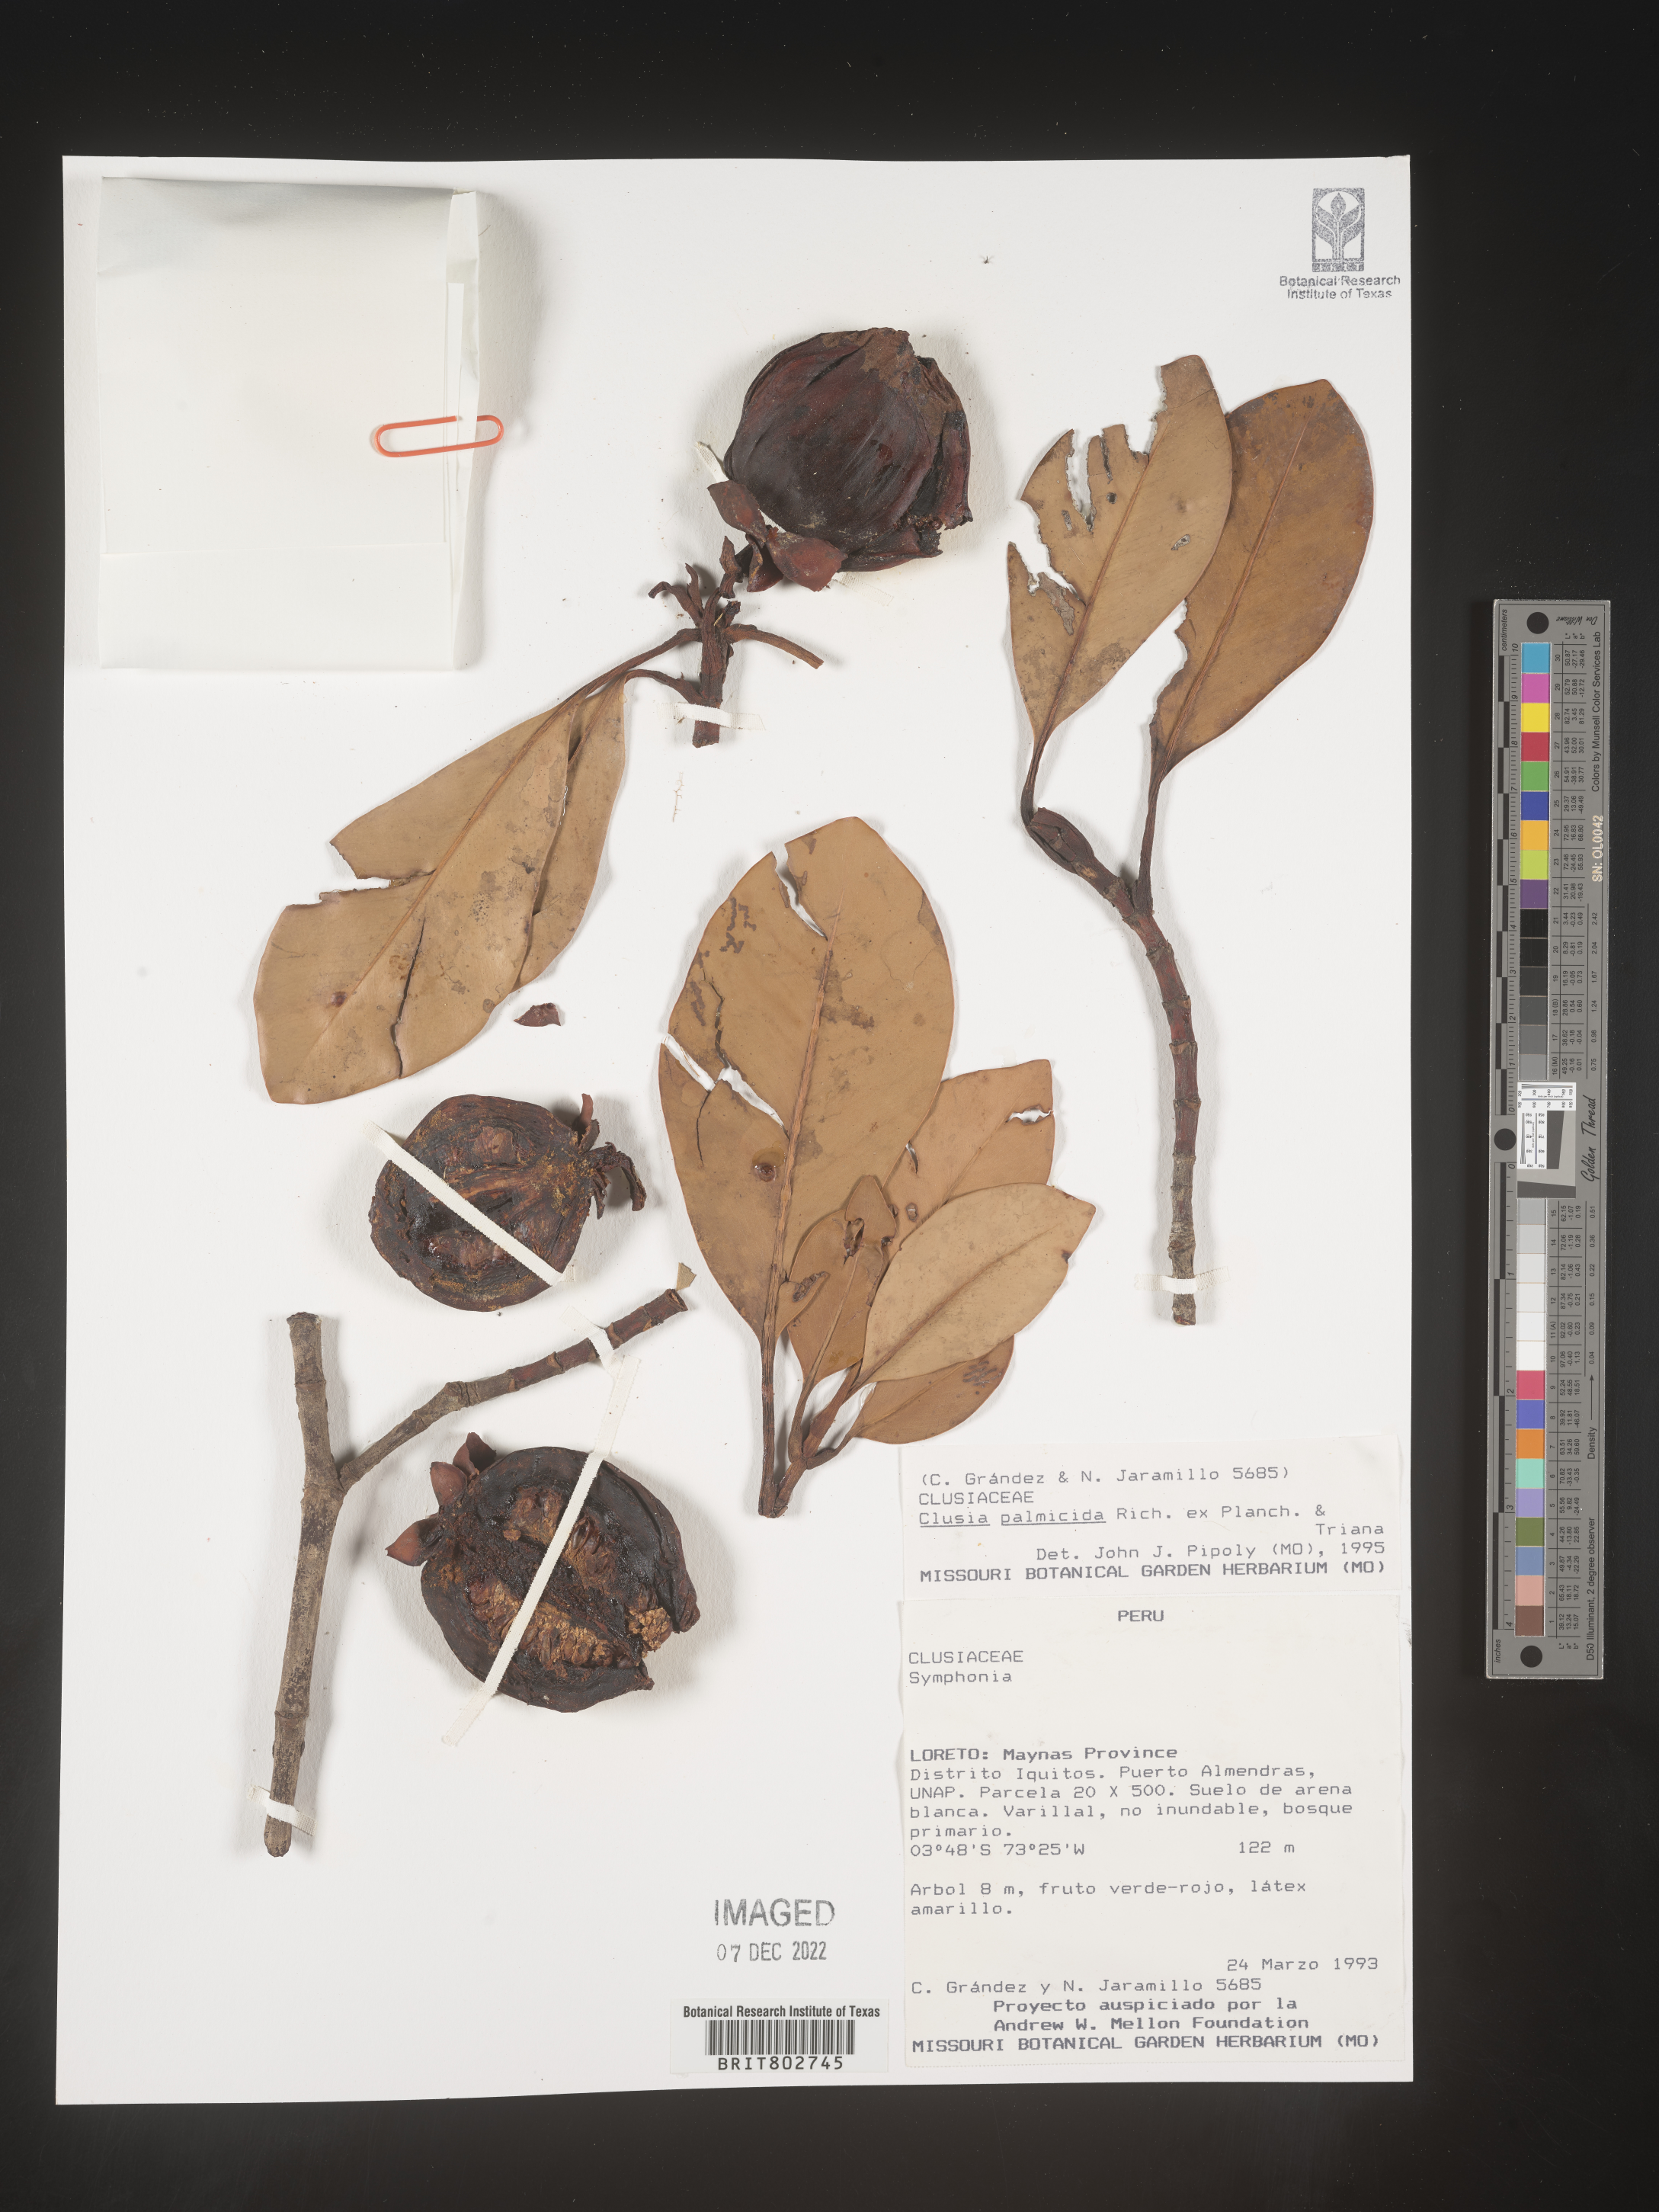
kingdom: Plantae
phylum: Tracheophyta
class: Magnoliopsida
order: Malpighiales
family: Clusiaceae
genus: Clusia
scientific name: Clusia palmicida
